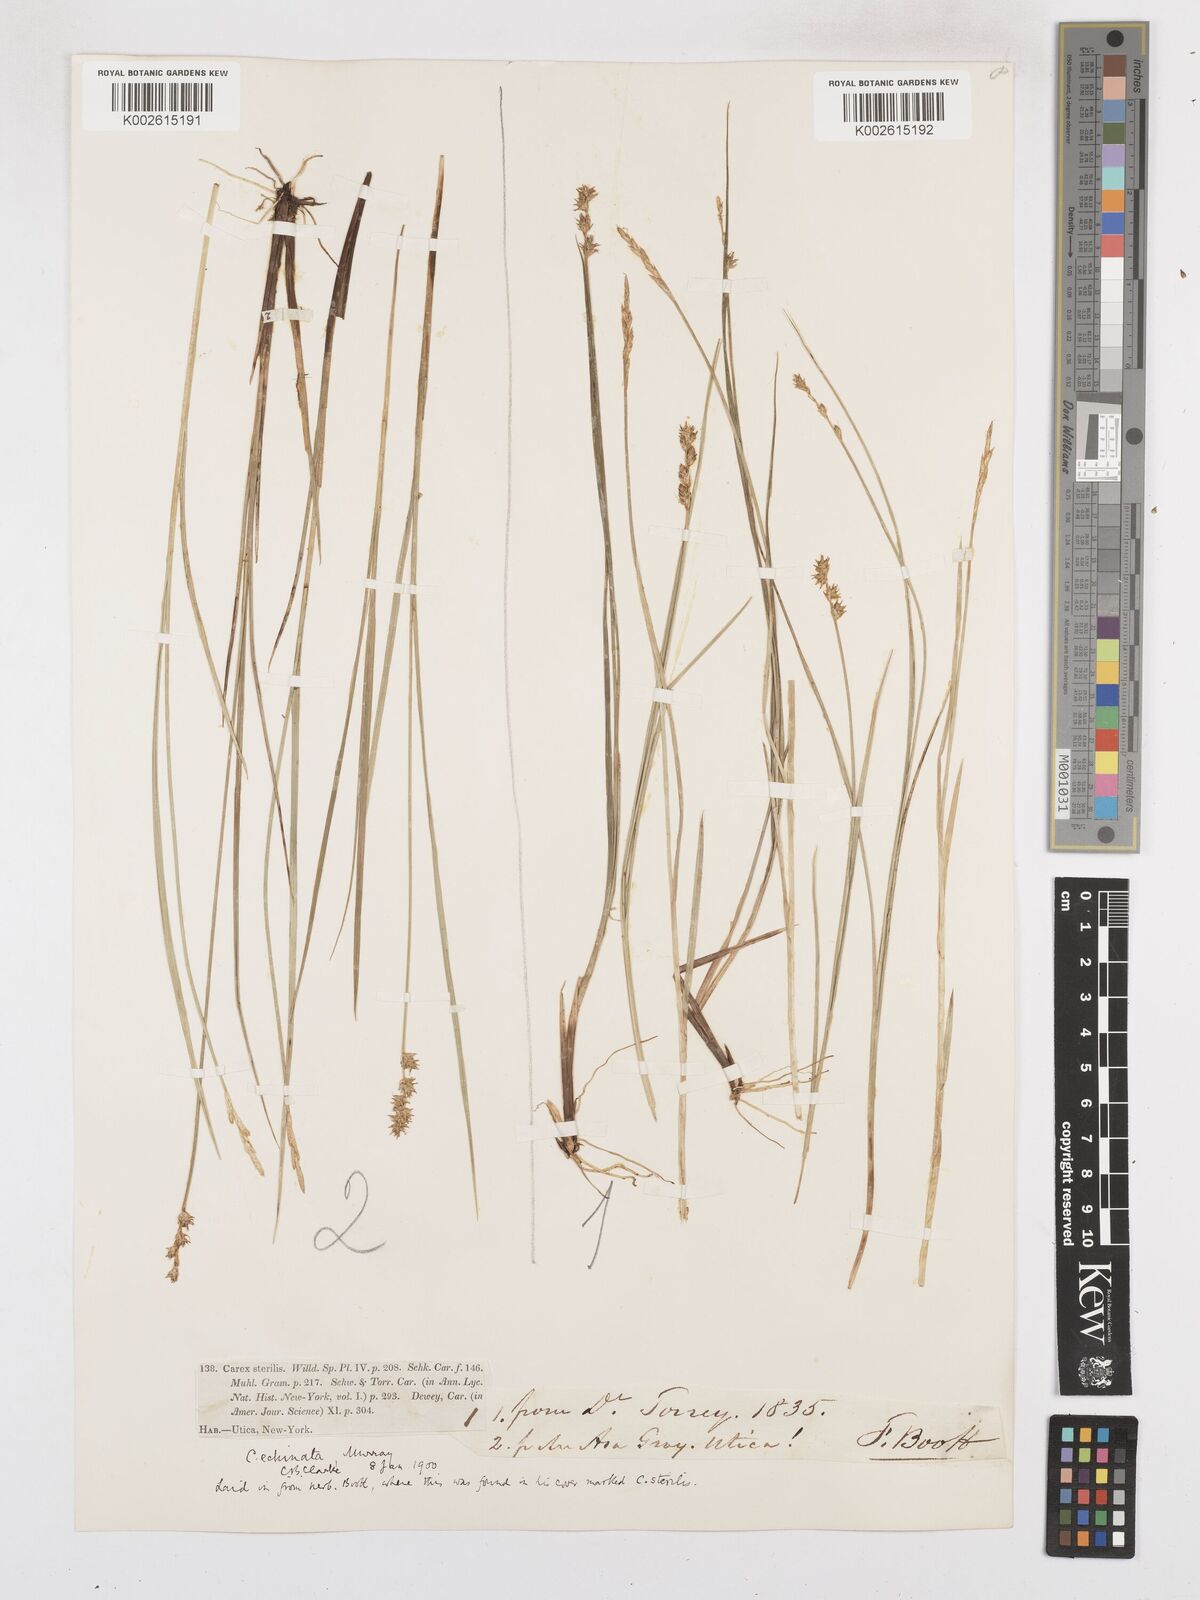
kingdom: Plantae
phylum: Tracheophyta
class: Liliopsida
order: Poales
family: Cyperaceae
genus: Carex
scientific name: Carex echinata
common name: Star sedge
